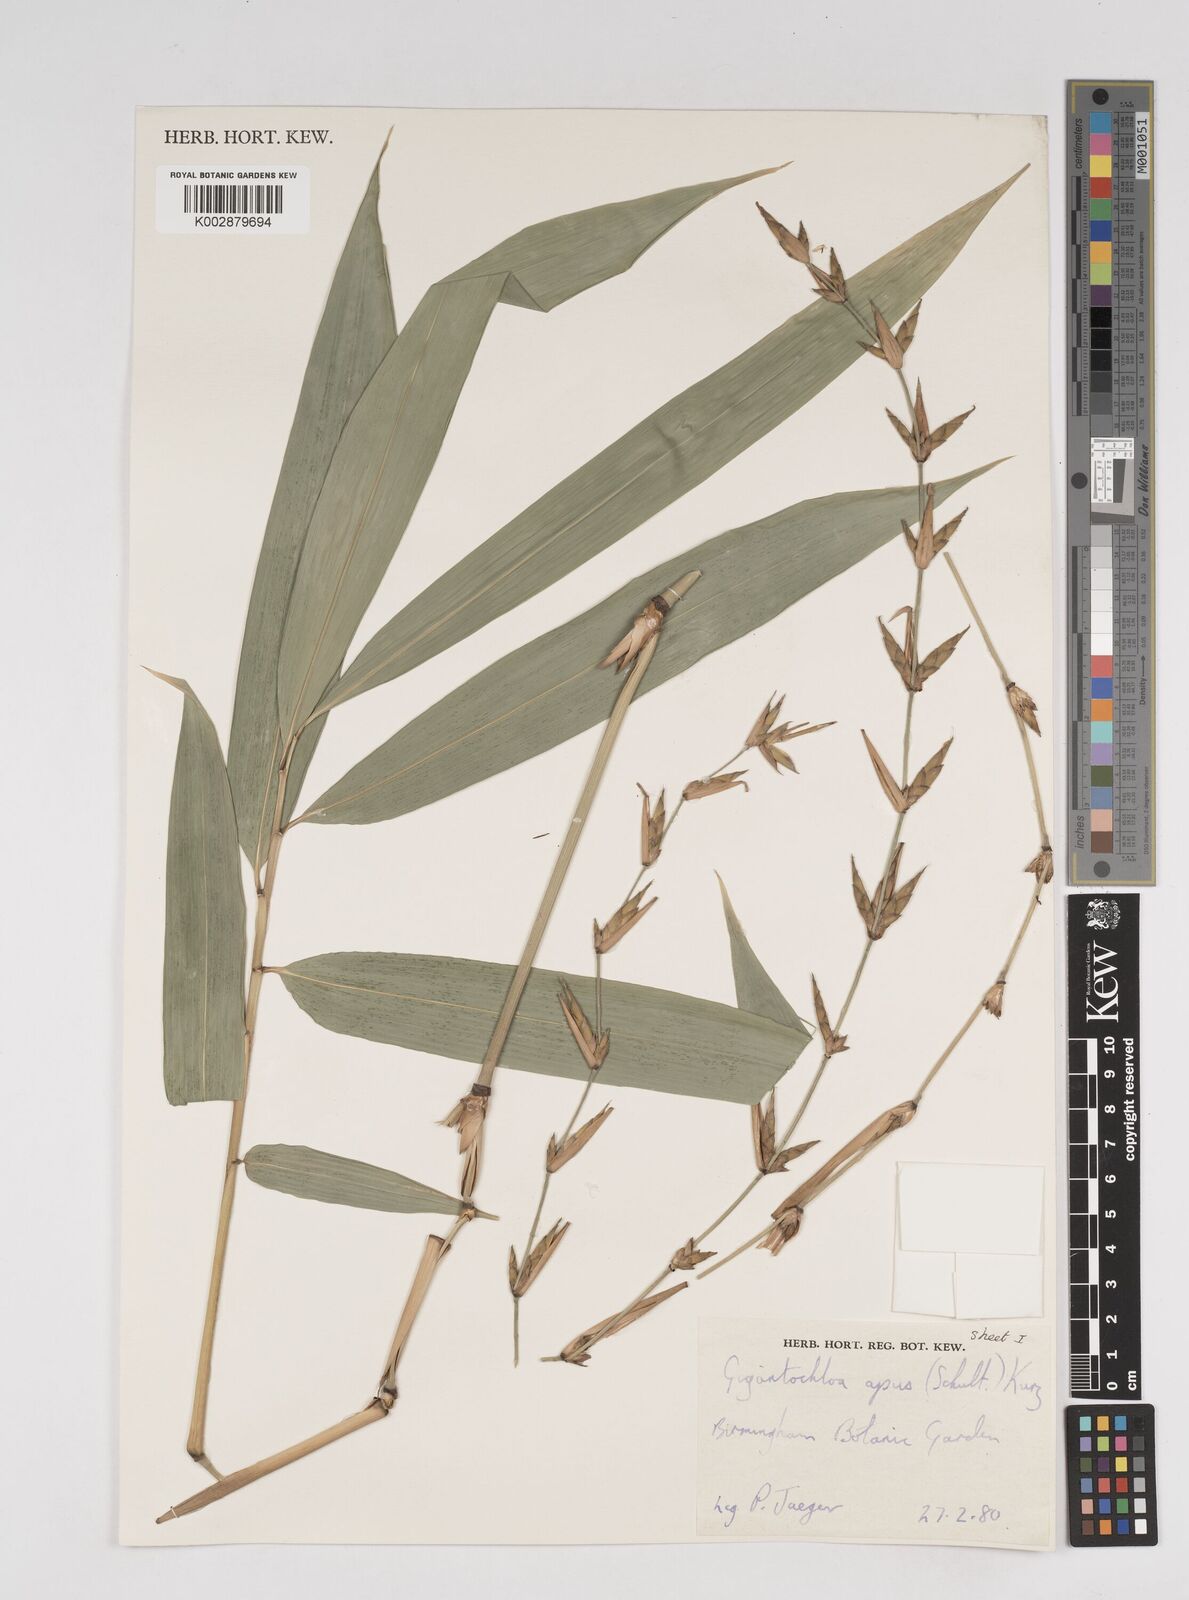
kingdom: Plantae
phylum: Tracheophyta
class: Liliopsida
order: Poales
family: Poaceae
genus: Gigantochloa
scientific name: Gigantochloa apus
